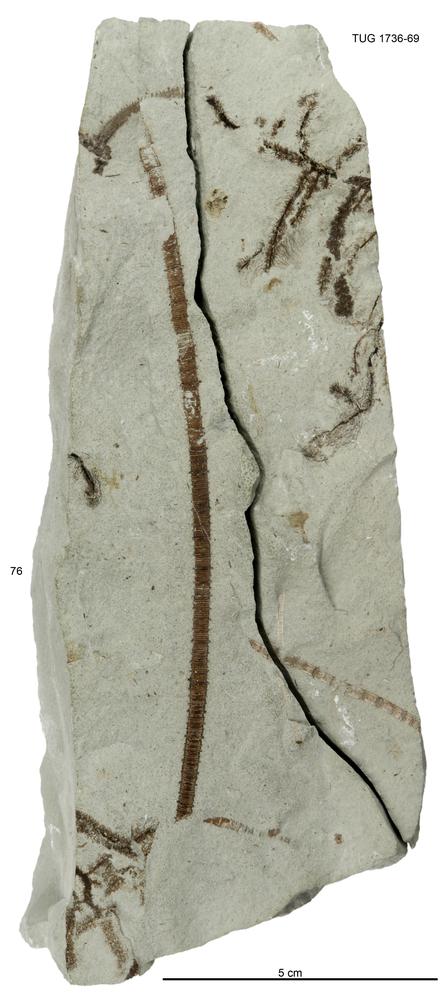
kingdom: Animalia
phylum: Echinodermata
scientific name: Echinodermata
